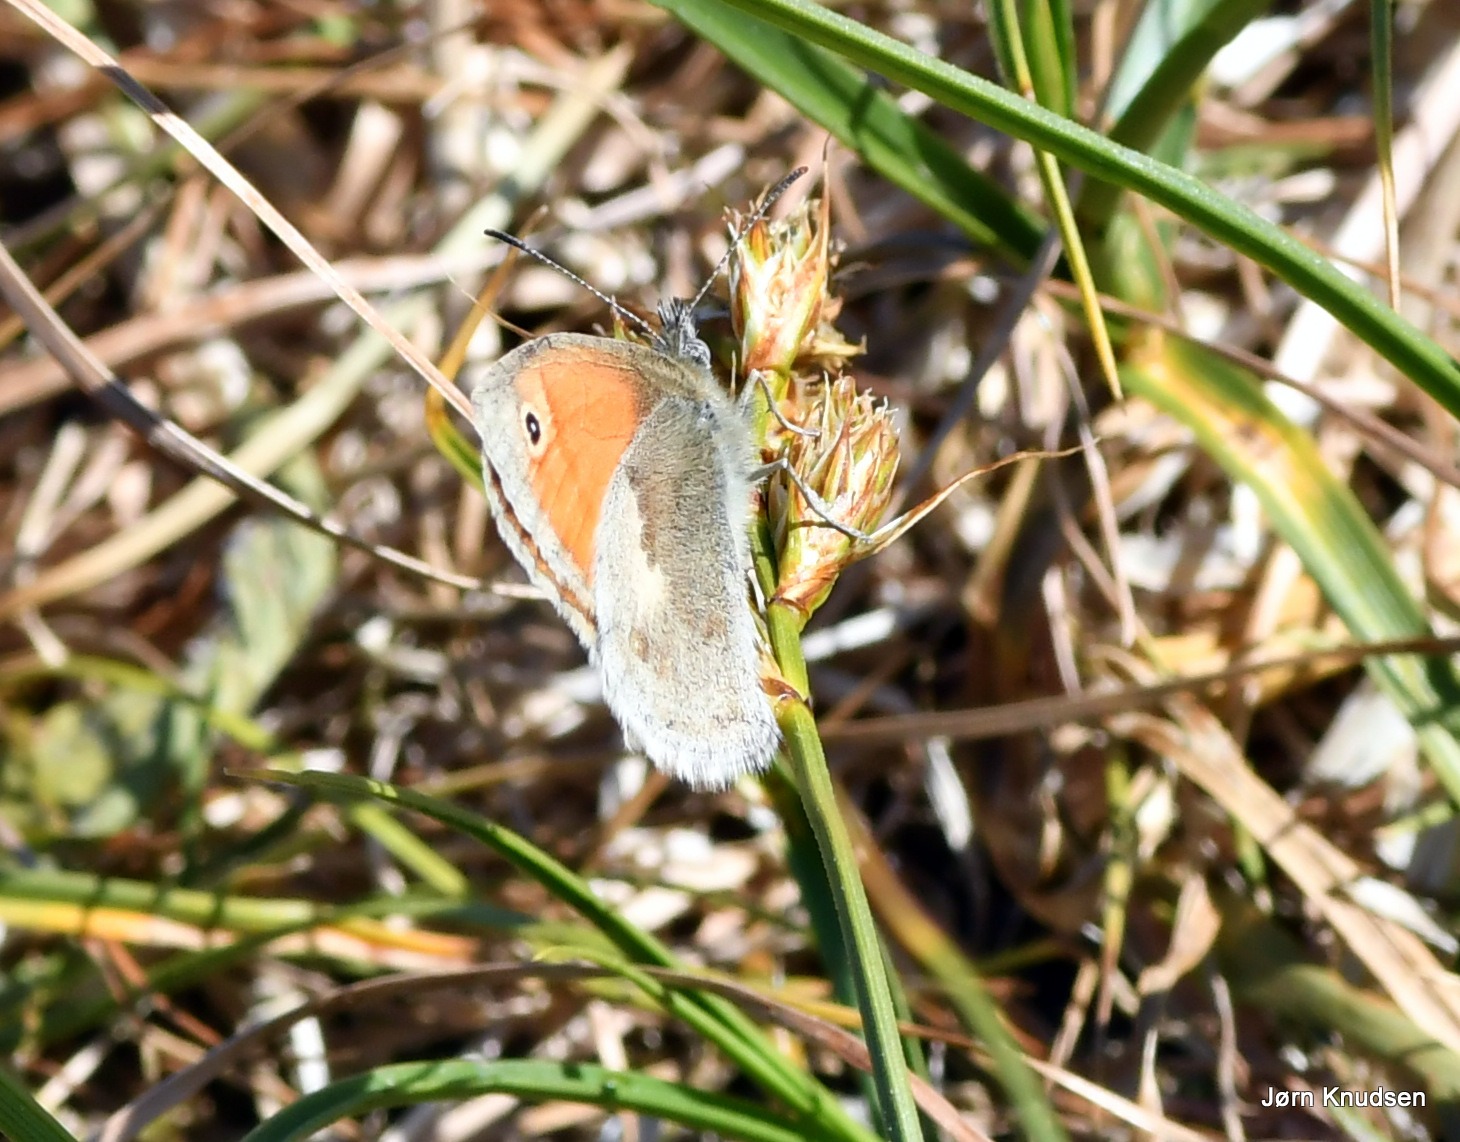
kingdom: Animalia
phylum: Arthropoda
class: Insecta
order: Lepidoptera
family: Nymphalidae
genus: Coenonympha
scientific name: Coenonympha pamphilus
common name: Okkergul randøje
